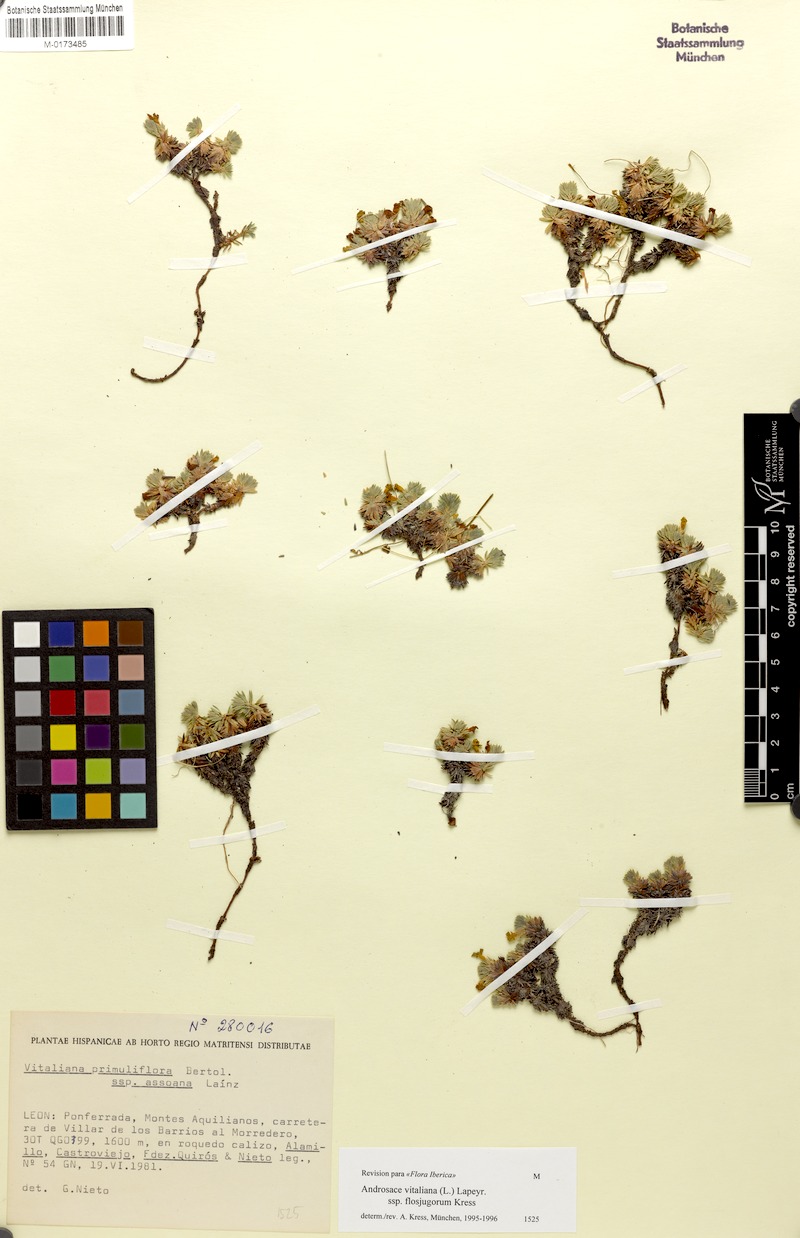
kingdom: Plantae
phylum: Tracheophyta
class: Magnoliopsida
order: Ericales
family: Primulaceae
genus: Androsace
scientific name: Androsace vitaliana
